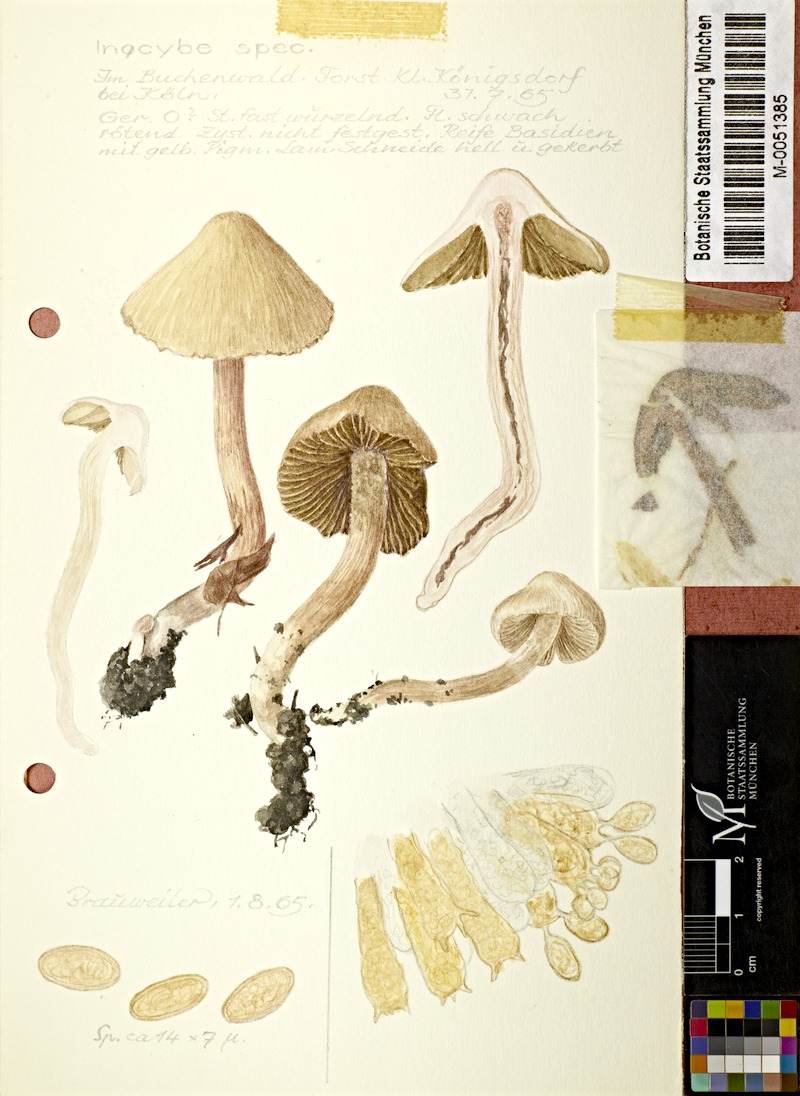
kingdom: Fungi
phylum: Basidiomycota
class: Agaricomycetes
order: Agaricales
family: Inocybaceae
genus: Inocybe
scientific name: Inocybe
